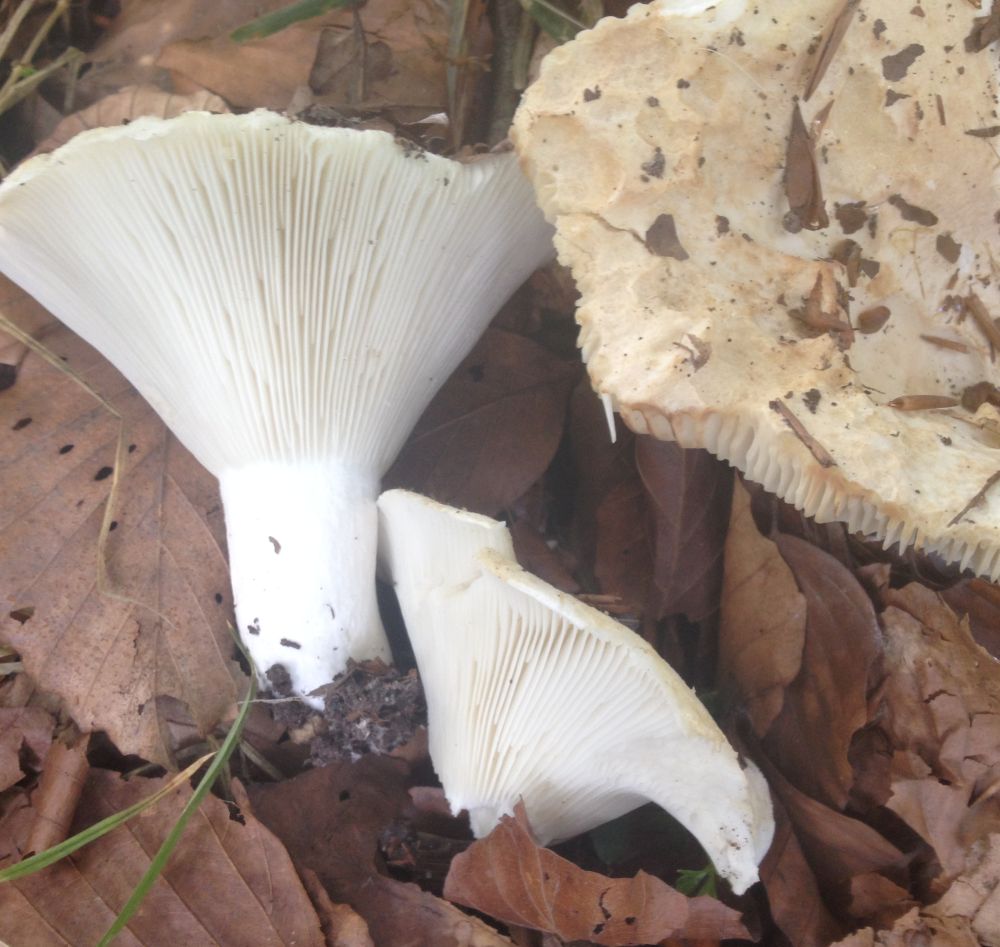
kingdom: Fungi
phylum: Basidiomycota
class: Agaricomycetes
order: Russulales
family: Russulaceae
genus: Russula
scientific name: Russula delica
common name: almindelig tragt-skørhat
